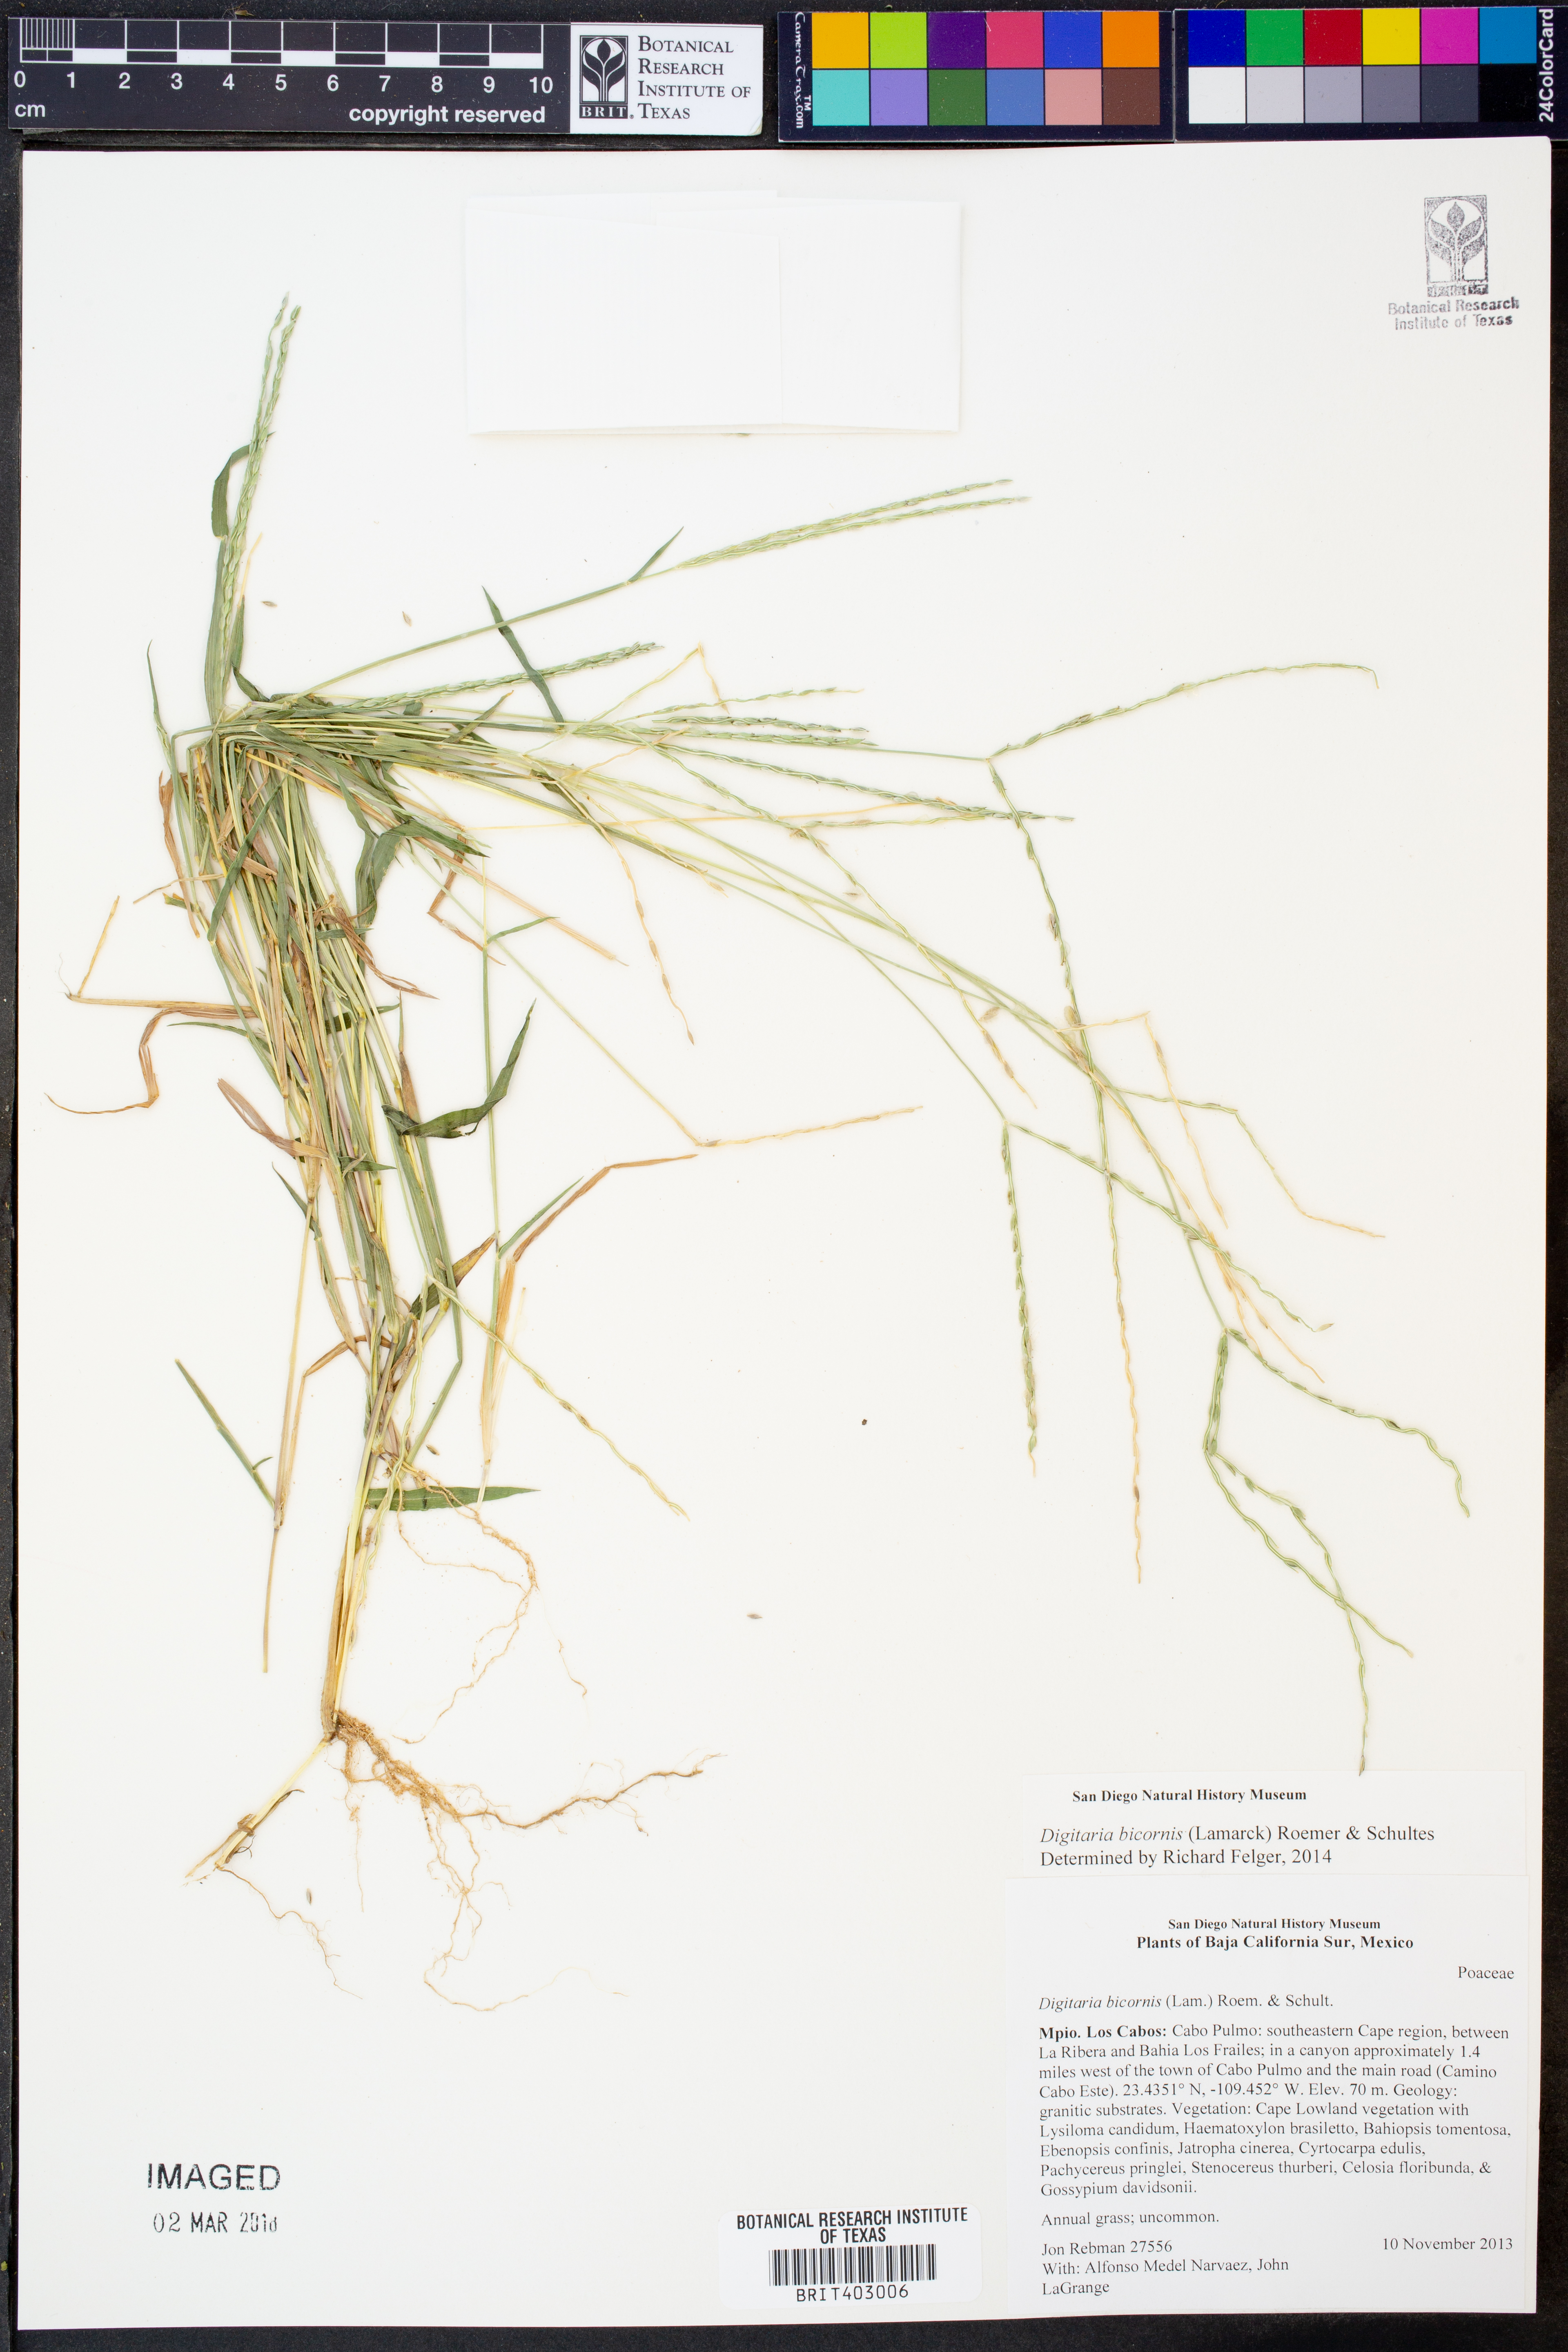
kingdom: Plantae
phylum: Tracheophyta
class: Liliopsida
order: Poales
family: Poaceae
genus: Digitaria
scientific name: Digitaria bicornis
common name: Asian crabgrass
